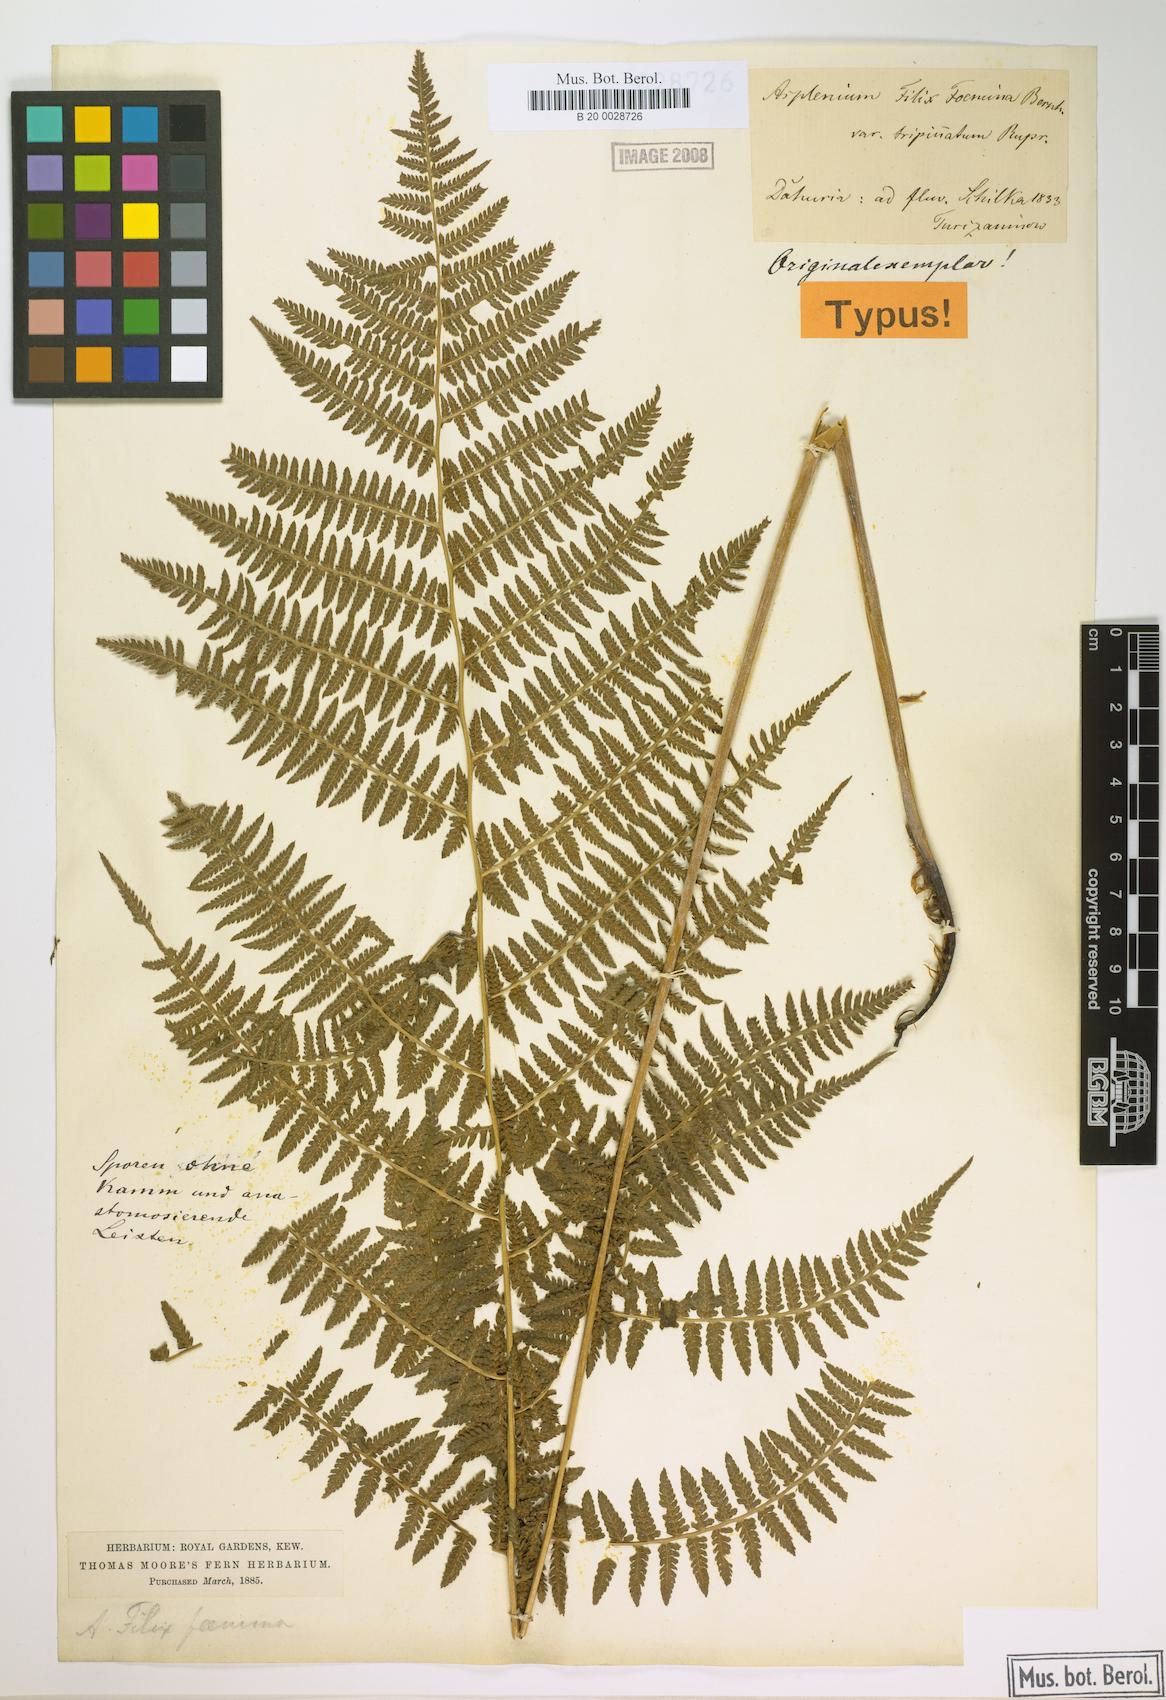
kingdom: Plantae
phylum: Tracheophyta
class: Polypodiopsida
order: Polypodiales
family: Athyriaceae
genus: Athyrium
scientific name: Athyrium filix-femina
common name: Lady fern
